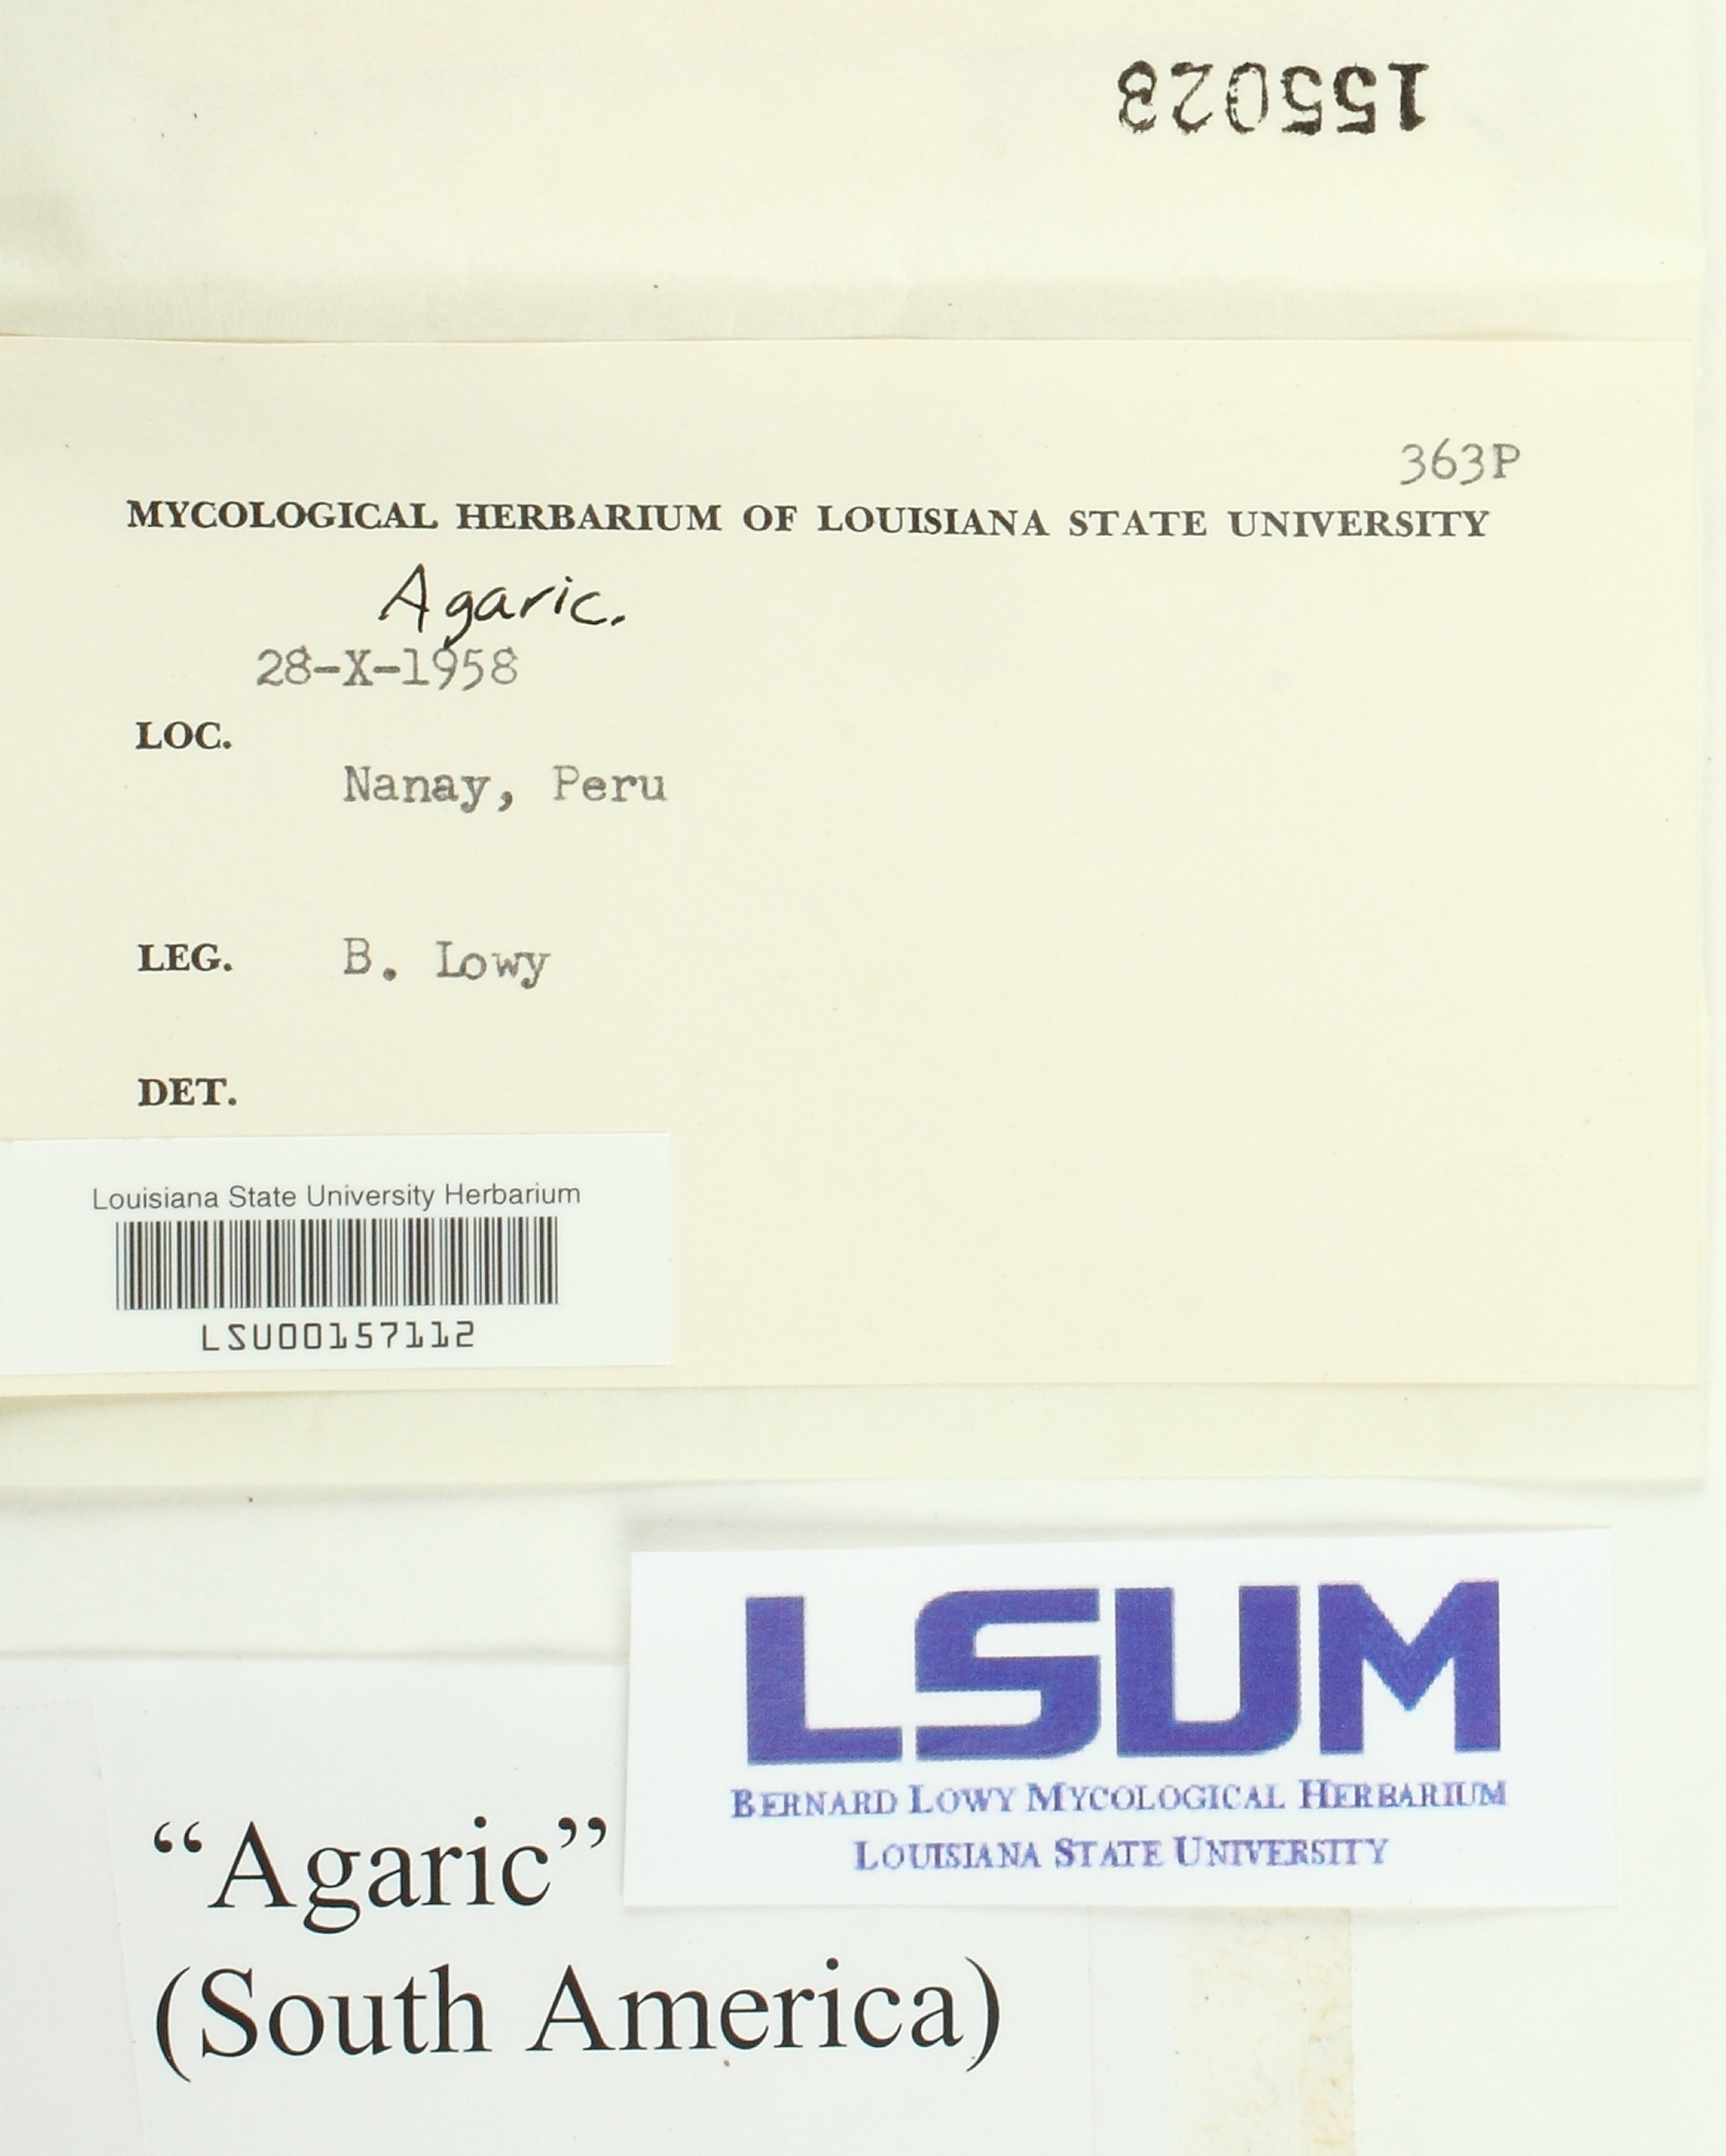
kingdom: Fungi
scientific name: Fungi
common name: Fungi
